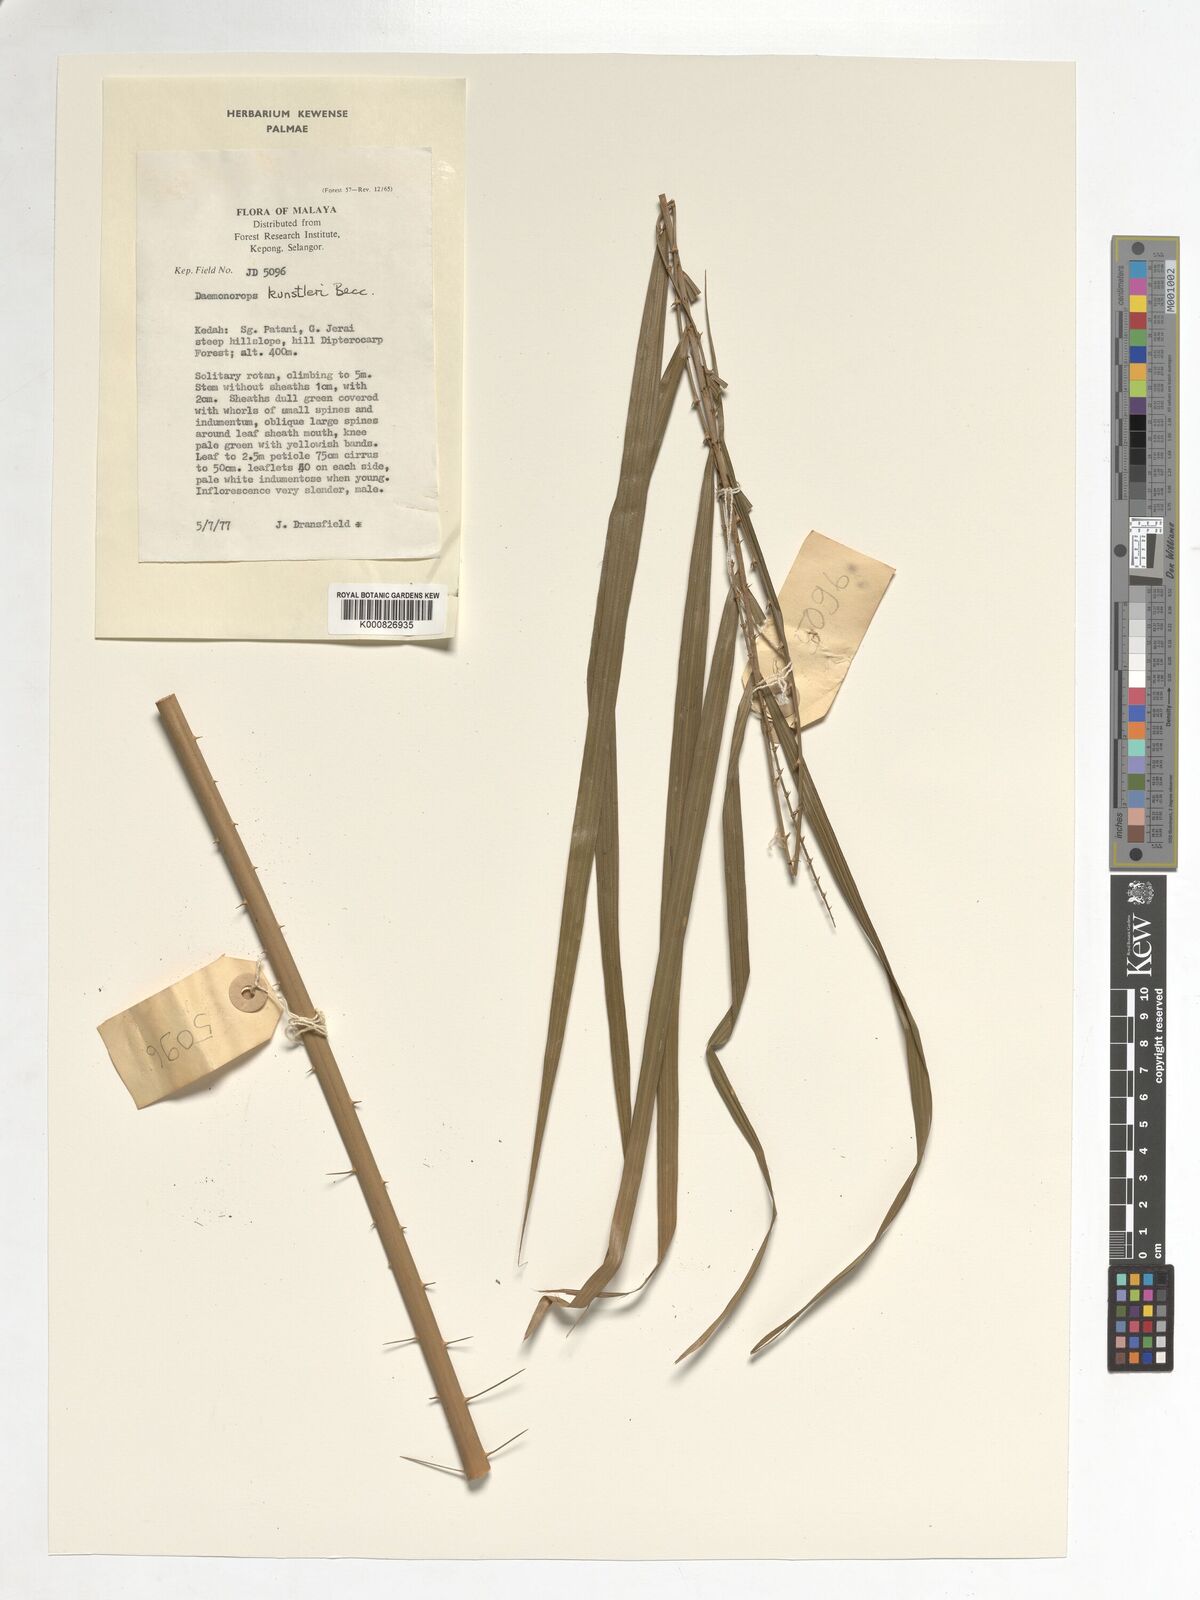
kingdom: Plantae
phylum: Tracheophyta
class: Liliopsida
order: Arecales
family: Arecaceae
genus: Calamus
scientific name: Calamus kunstleri
